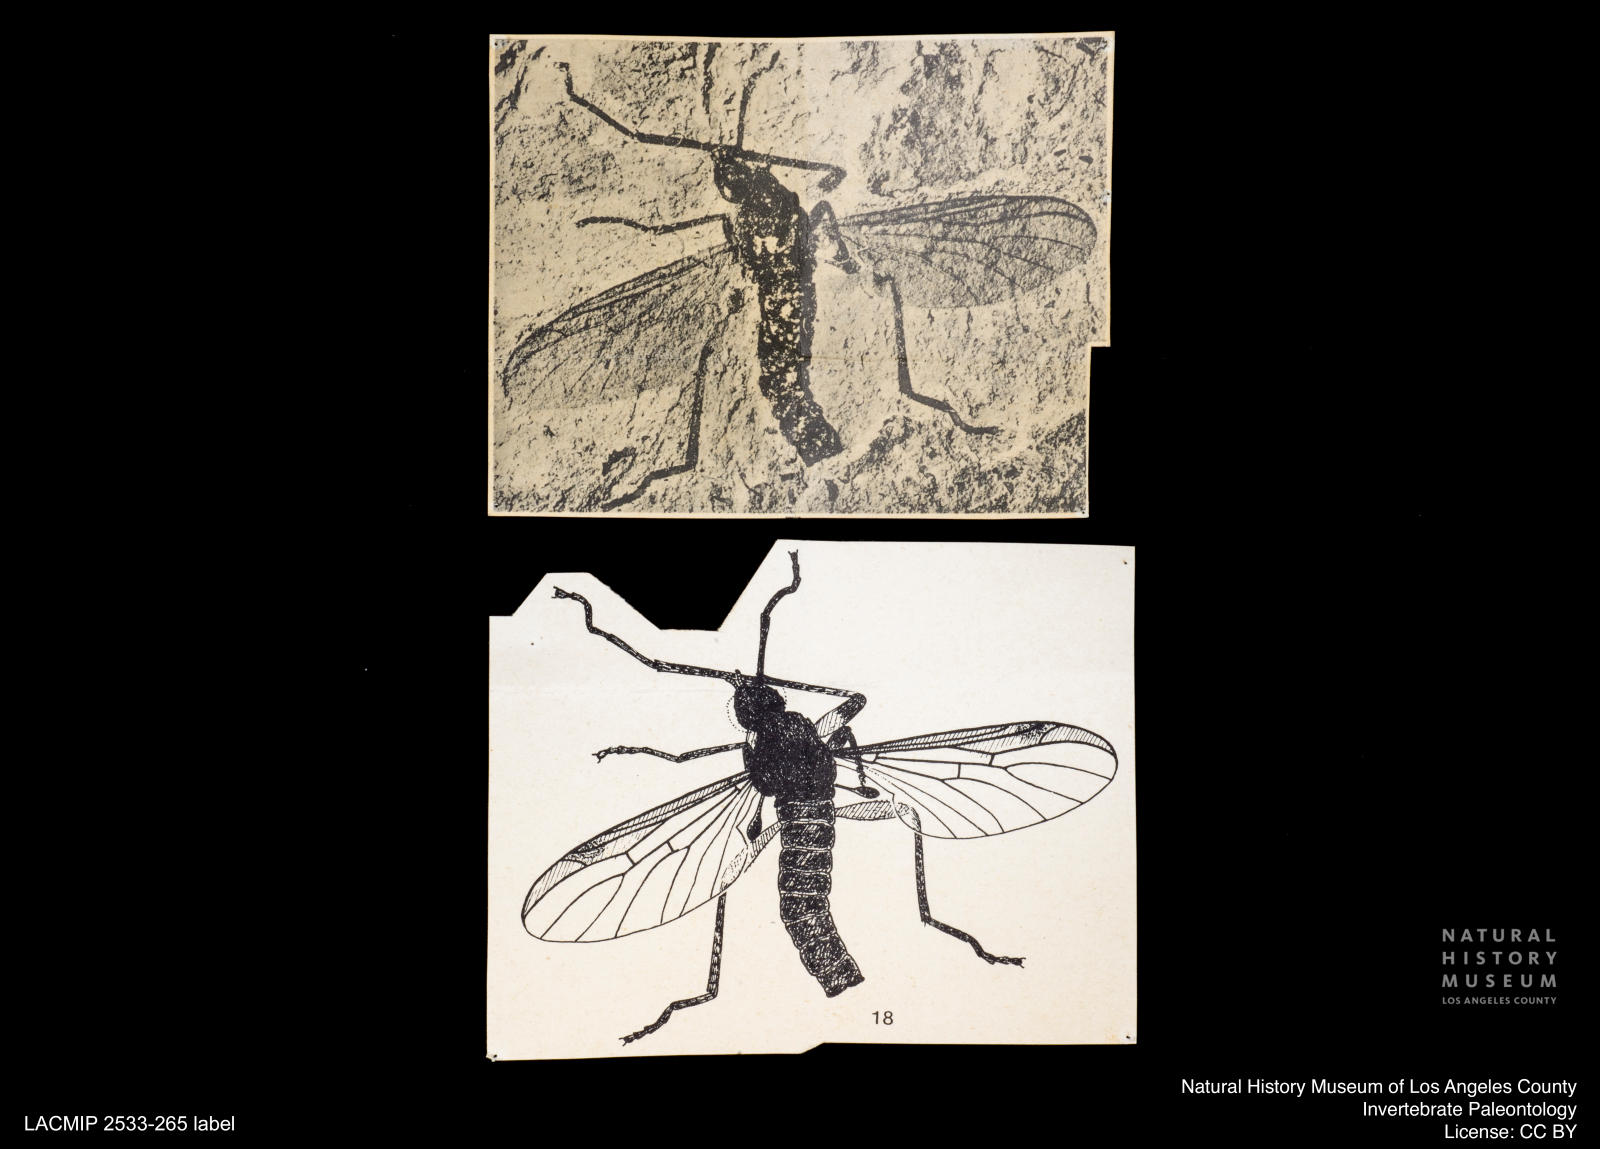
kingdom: Animalia
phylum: Arthropoda
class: Insecta
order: Diptera
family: Bibionidae
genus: Plecia
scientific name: Plecia
